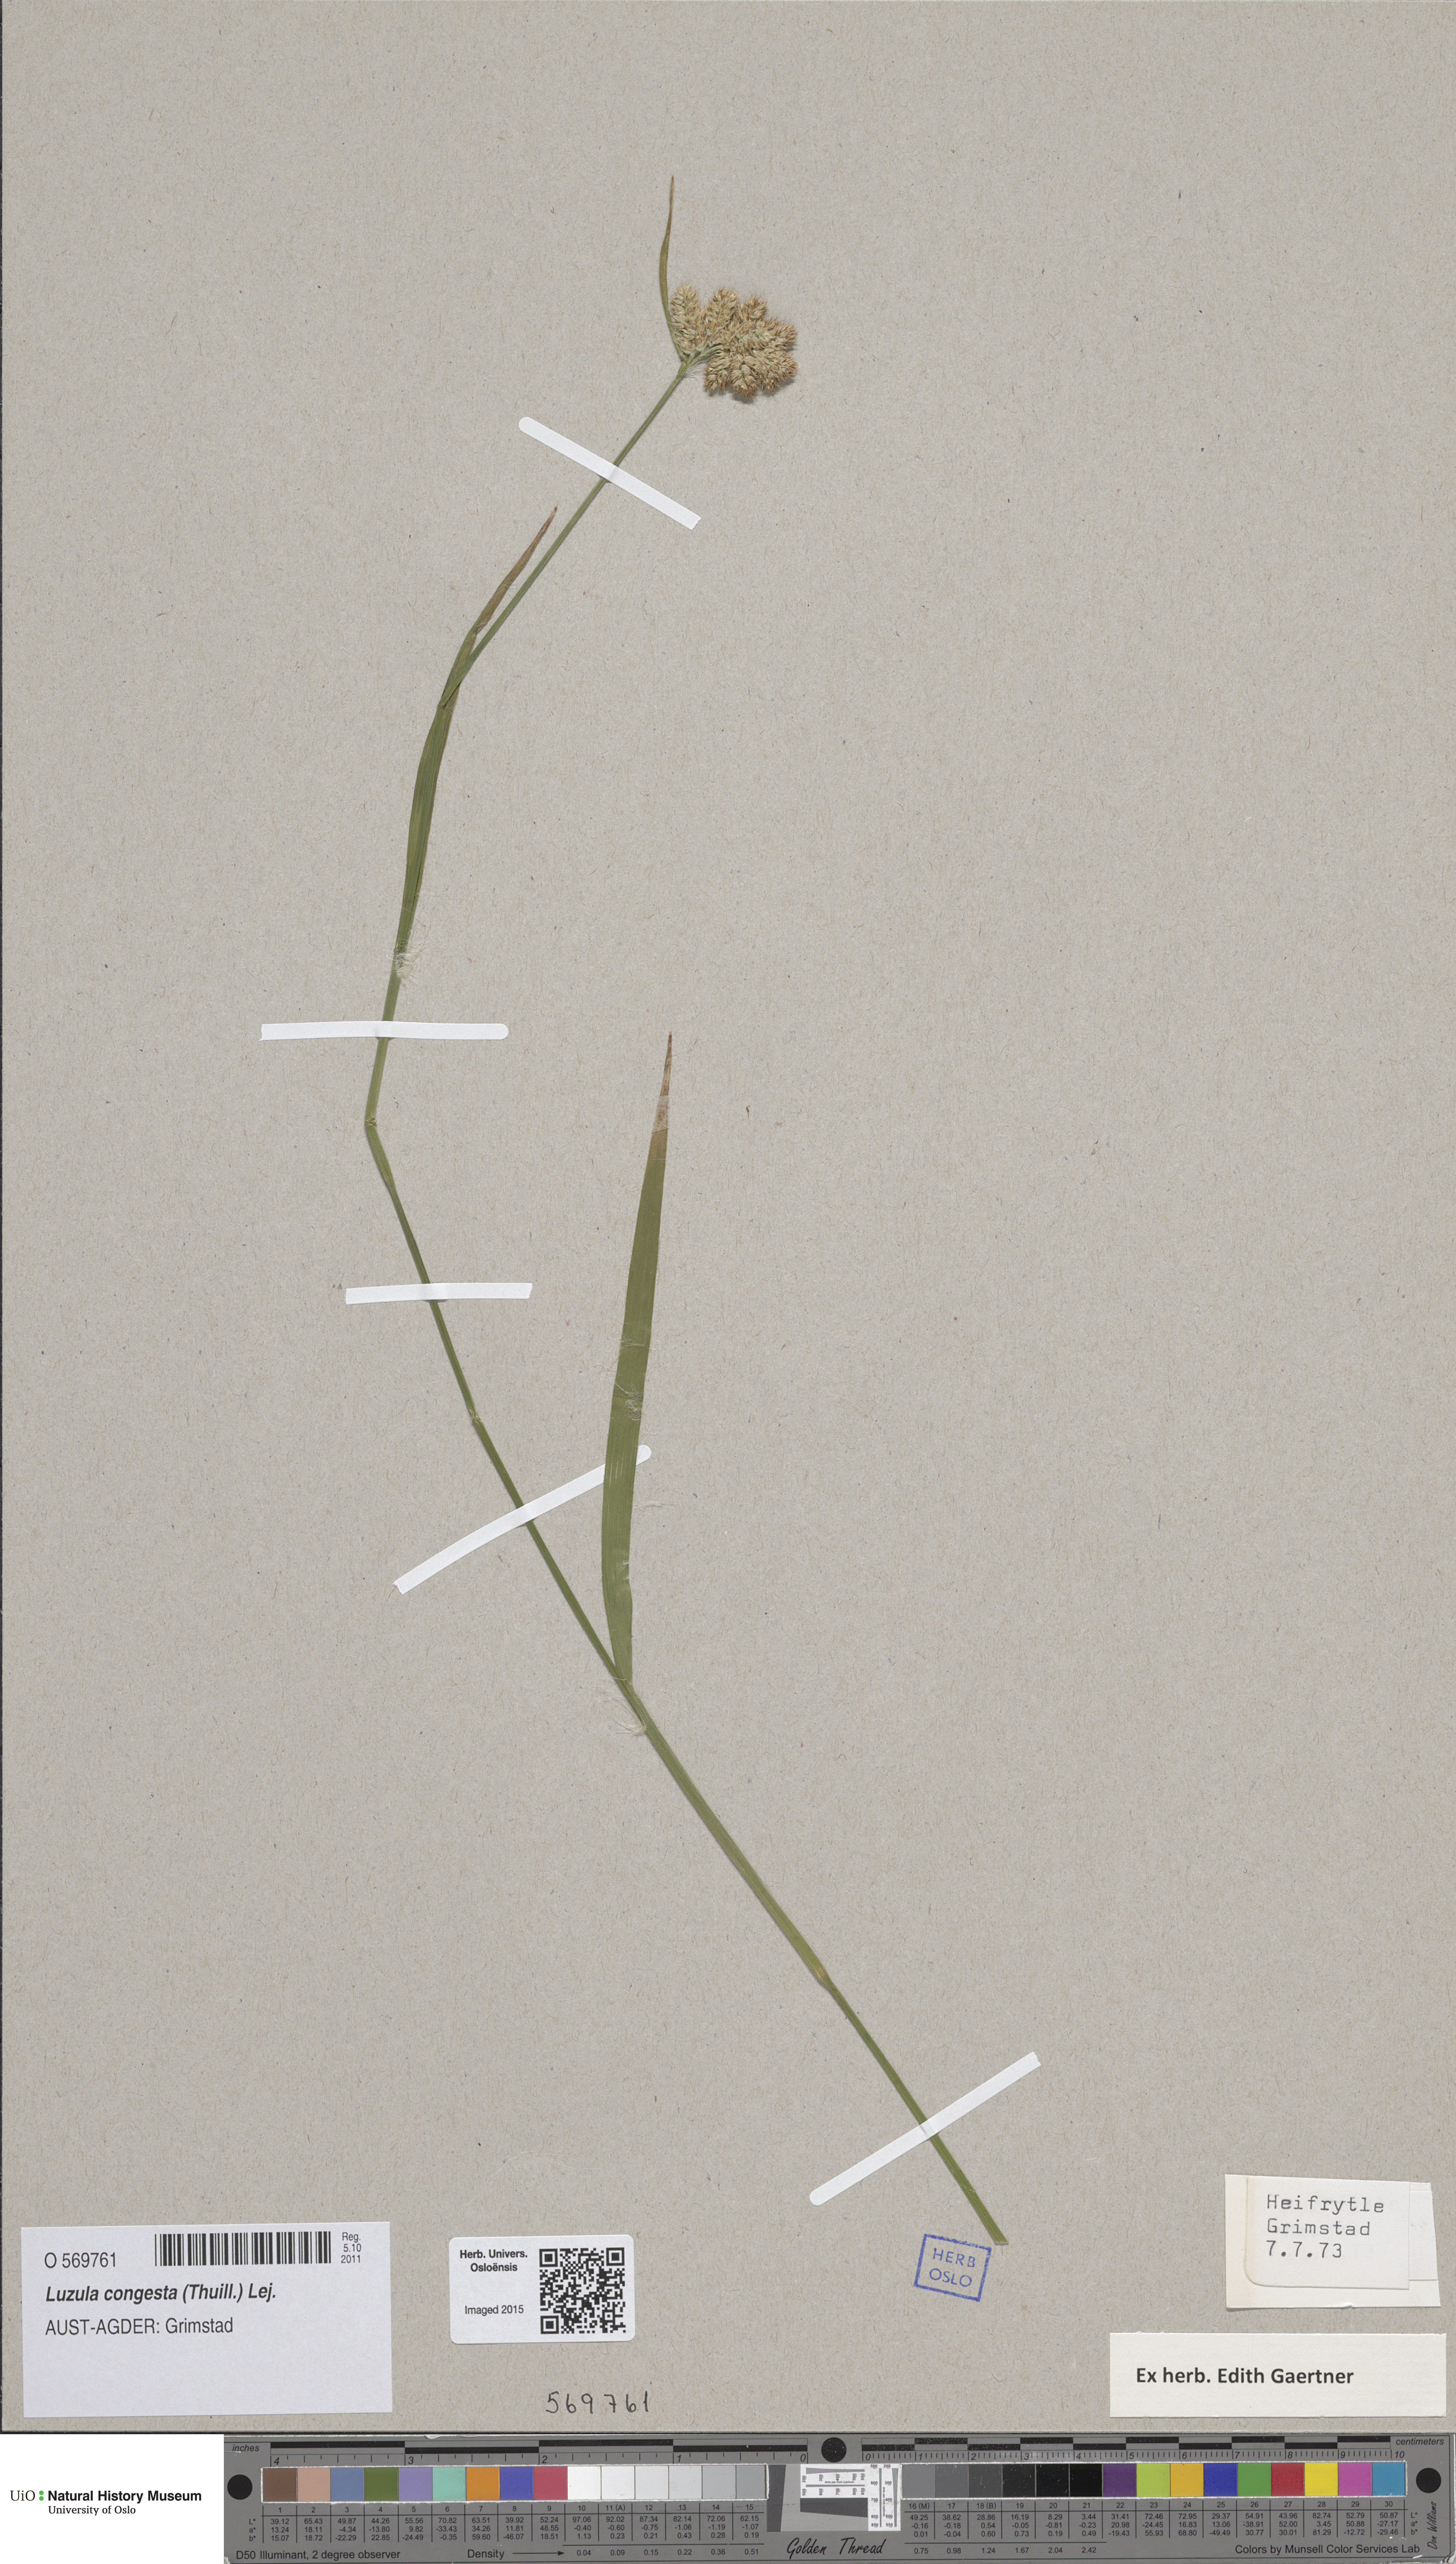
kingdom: Plantae
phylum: Tracheophyta
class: Liliopsida
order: Poales
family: Juncaceae
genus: Luzula
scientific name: Luzula congesta
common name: Heath woodrush
